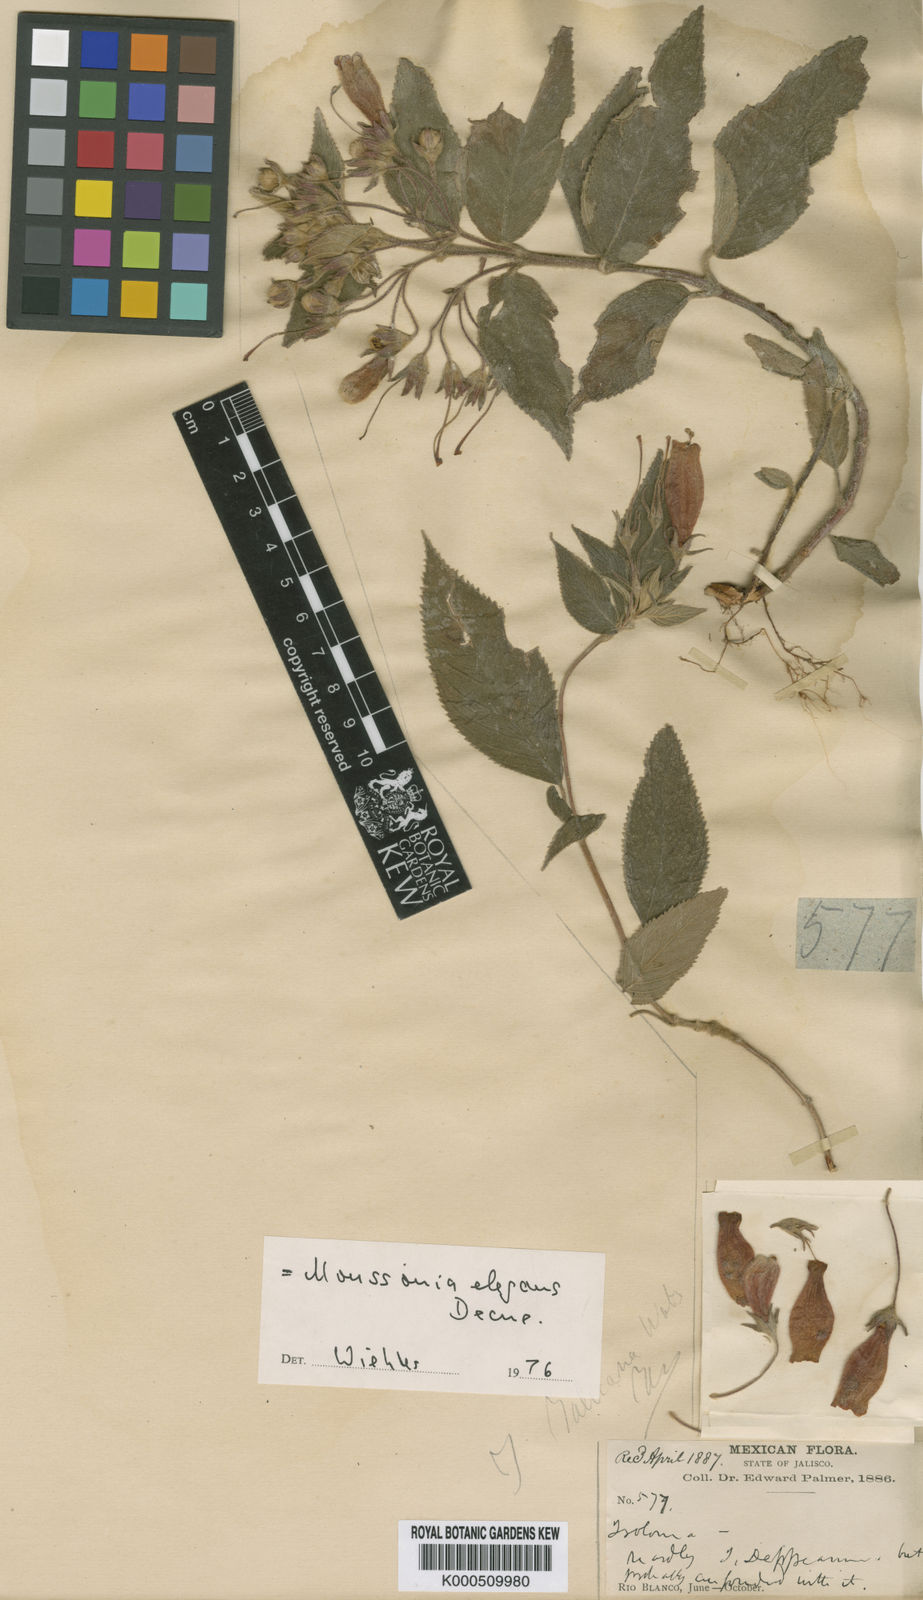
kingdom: Plantae
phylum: Tracheophyta
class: Magnoliopsida
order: Lamiales
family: Gesneriaceae
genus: Moussonia
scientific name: Moussonia jaliscana
